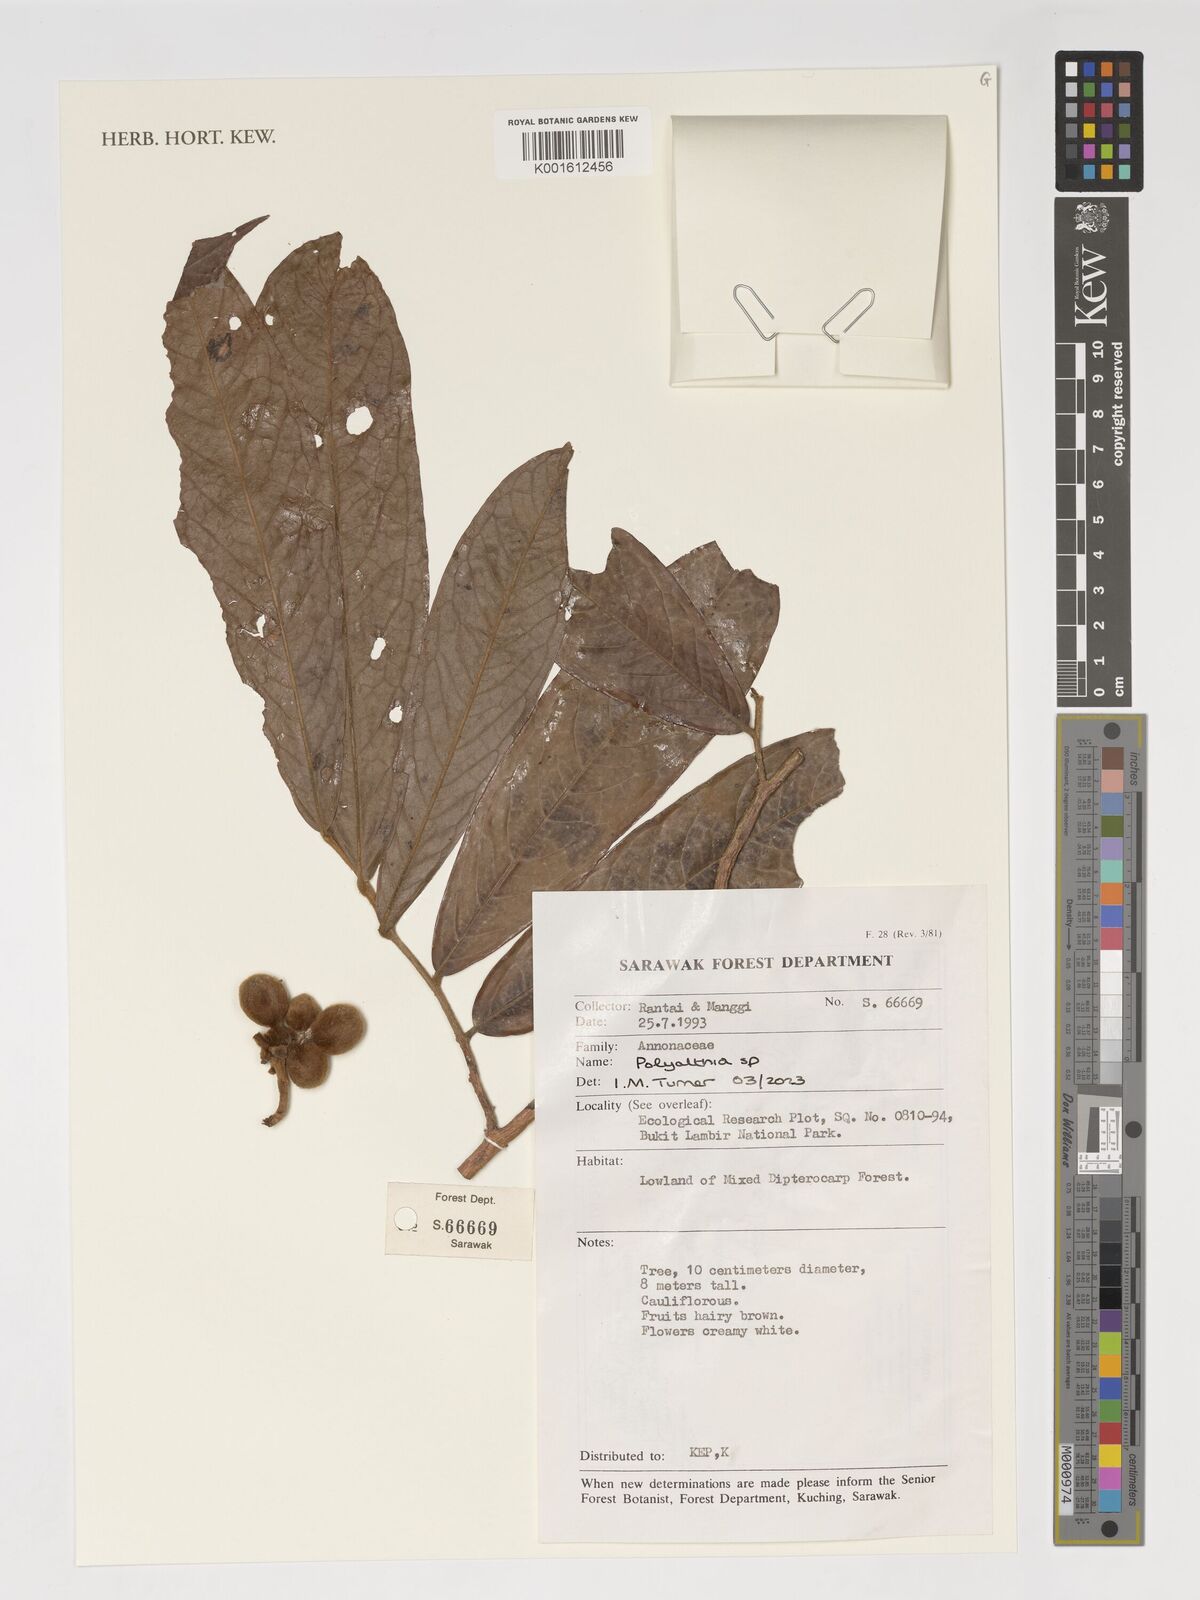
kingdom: Plantae
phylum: Tracheophyta
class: Magnoliopsida
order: Magnoliales
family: Annonaceae
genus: Polyalthia
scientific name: Polyalthia
